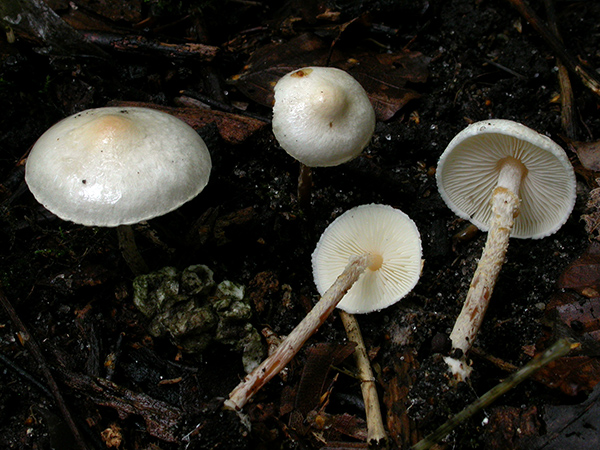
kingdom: Fungi
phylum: Basidiomycota
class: Agaricomycetes
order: Agaricales
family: Agaricaceae
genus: Lepiota
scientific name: Lepiota subalba
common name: hvidlig parasolhat
